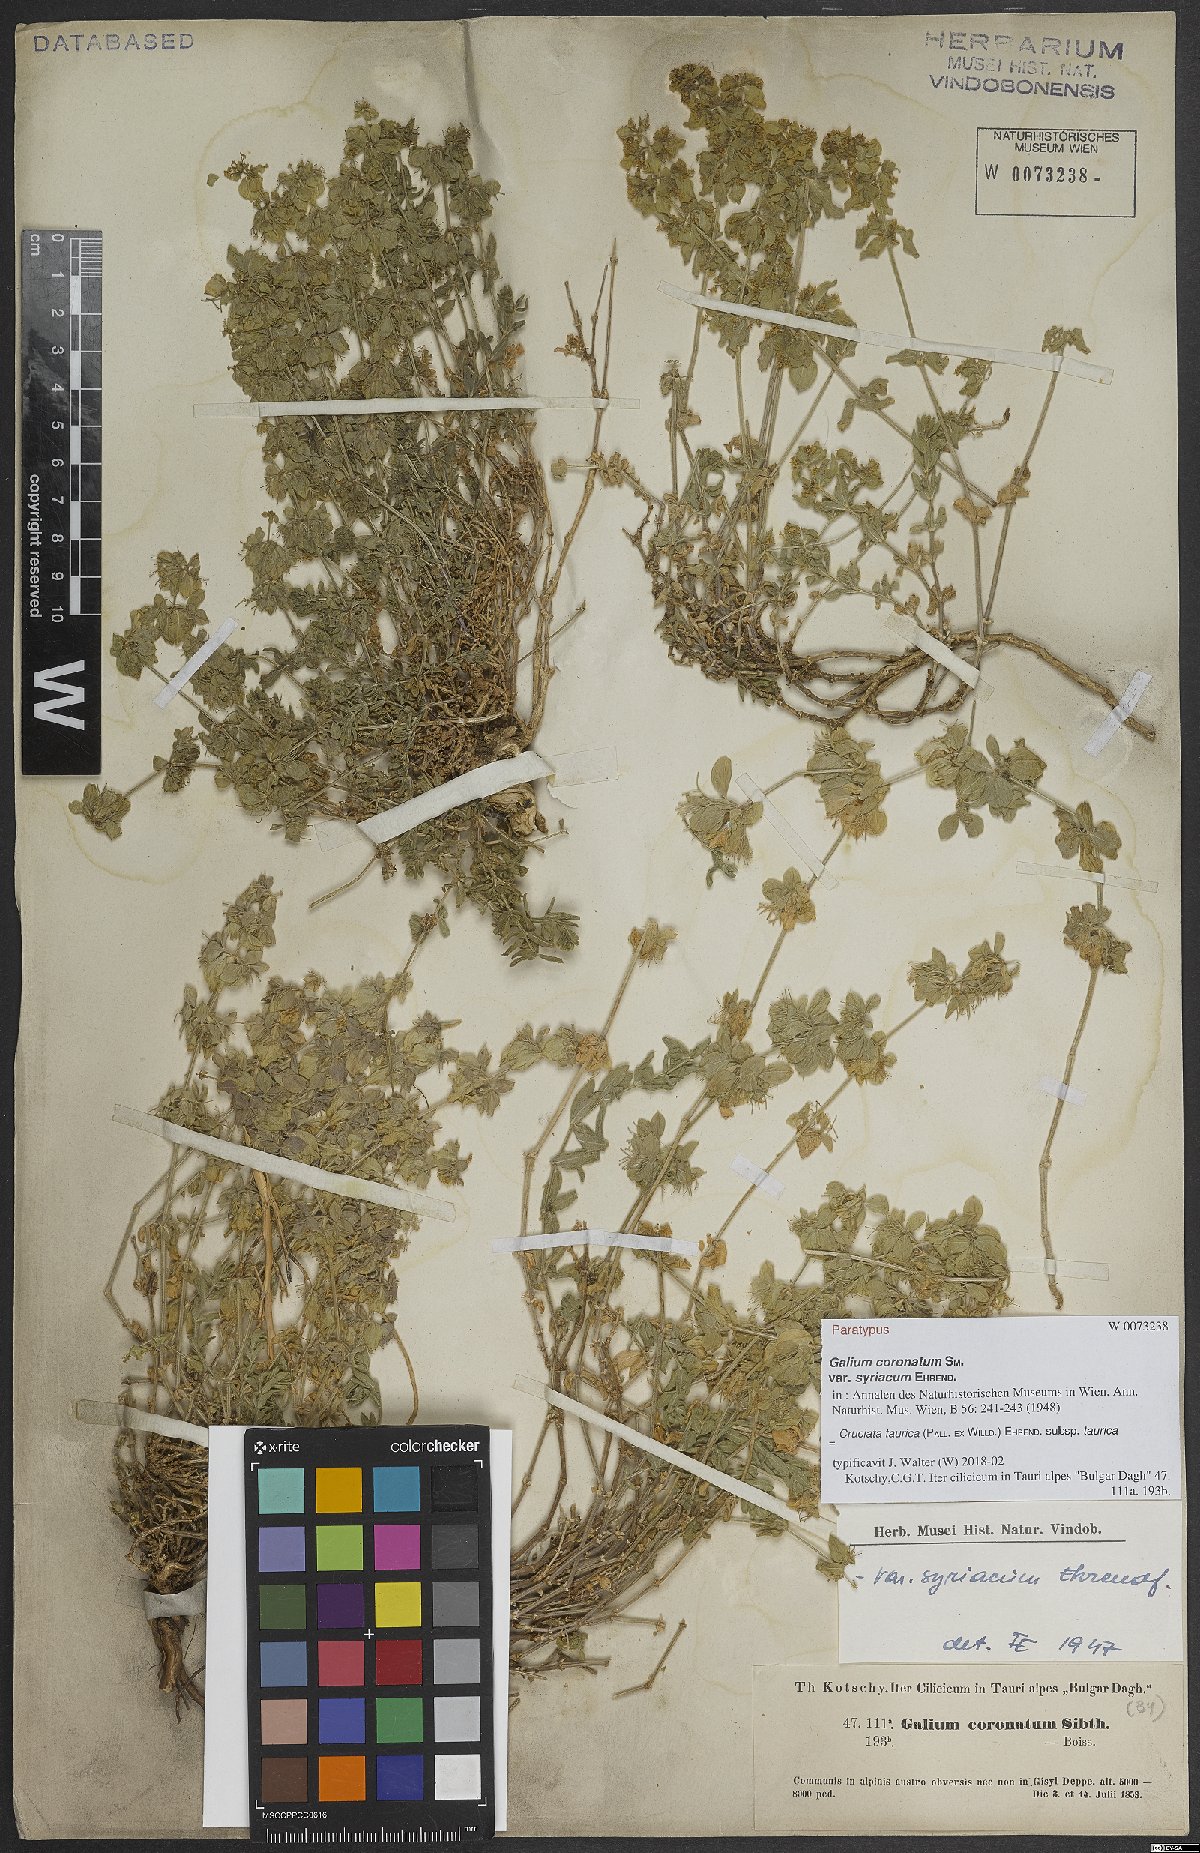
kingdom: Plantae
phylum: Tracheophyta
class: Magnoliopsida
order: Gentianales
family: Rubiaceae
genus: Cruciata
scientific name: Cruciata taurica
